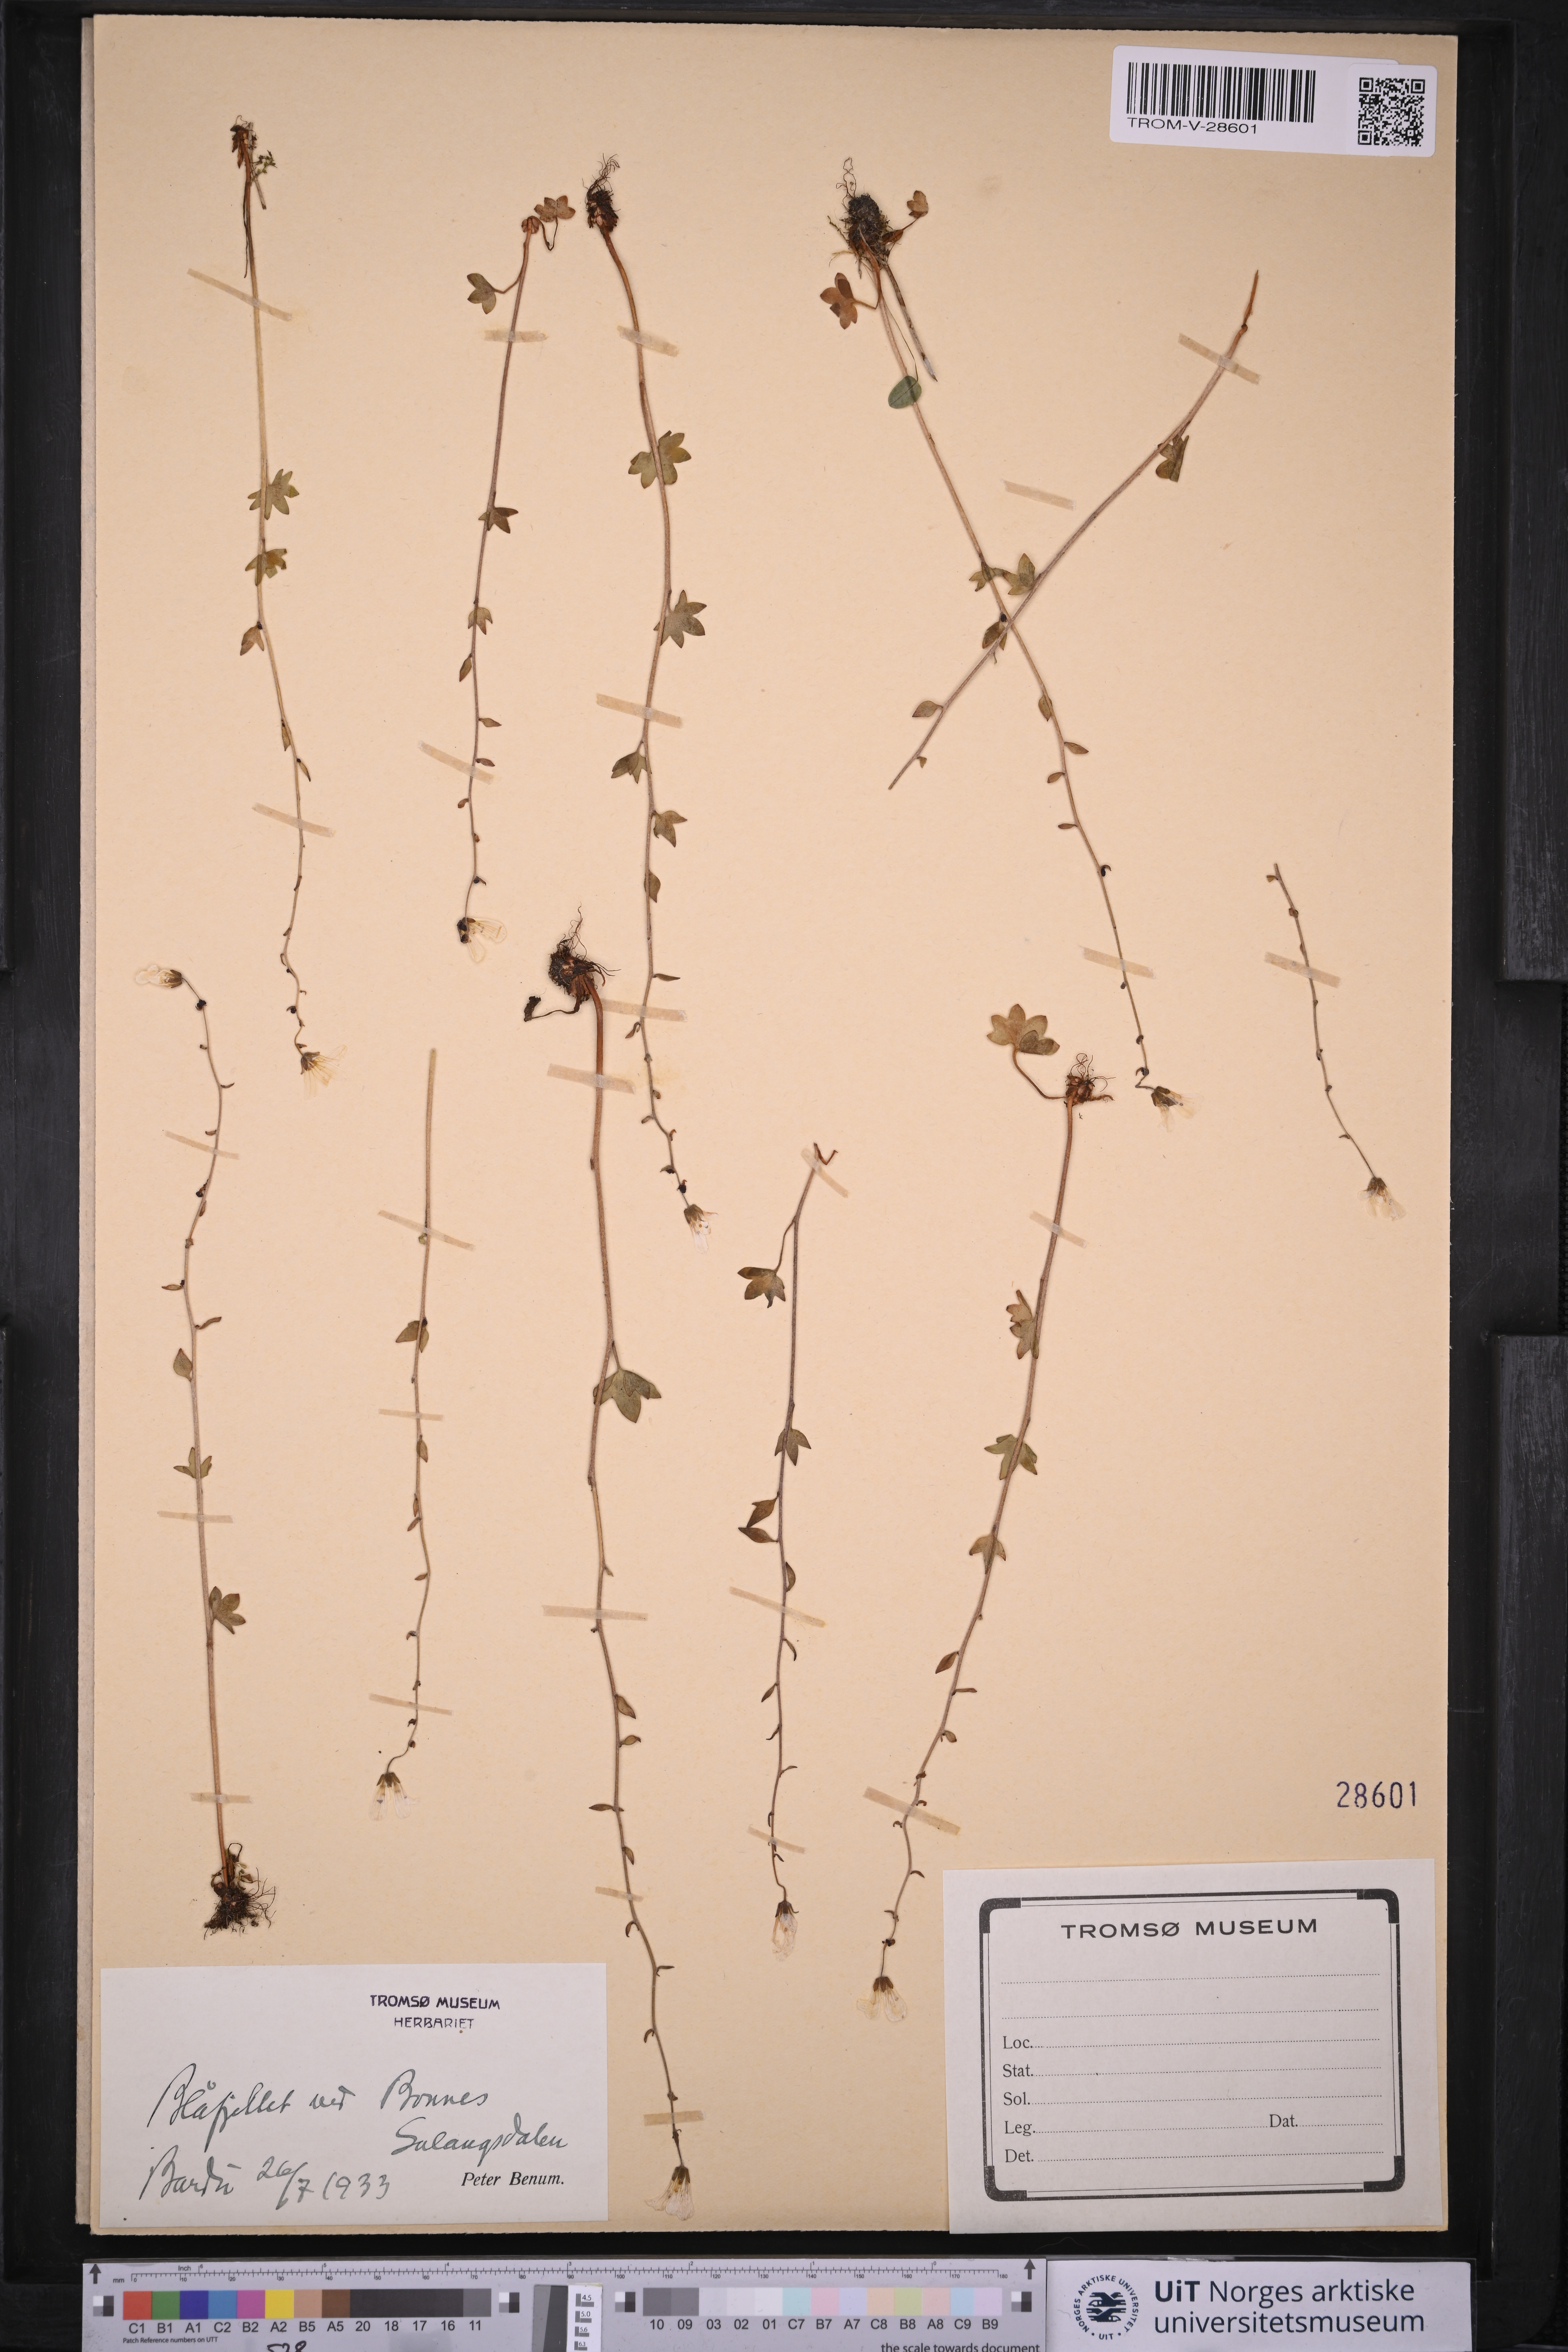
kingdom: Plantae
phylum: Tracheophyta
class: Magnoliopsida
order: Saxifragales
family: Saxifragaceae
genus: Saxifraga
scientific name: Saxifraga cernua
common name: Drooping saxifrage
